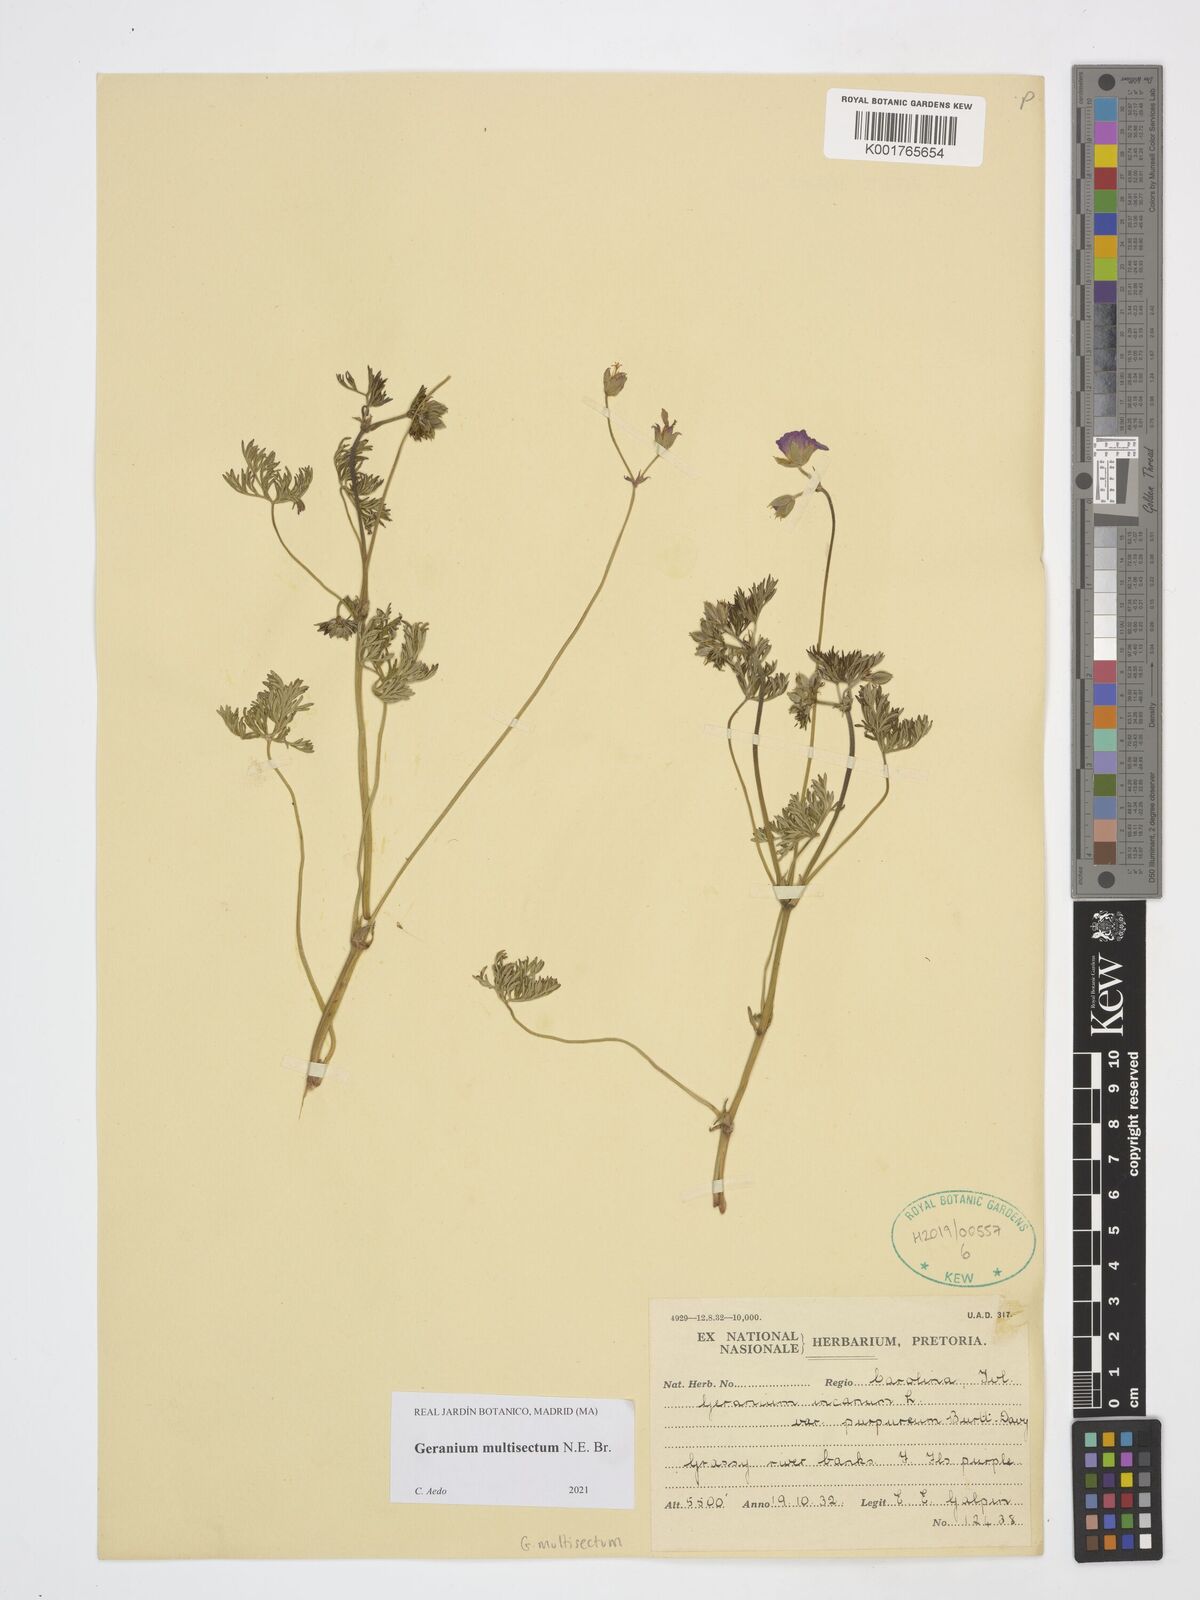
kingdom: Plantae
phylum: Tracheophyta
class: Magnoliopsida
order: Geraniales
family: Geraniaceae
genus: Geranium
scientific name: Geranium multisectum
